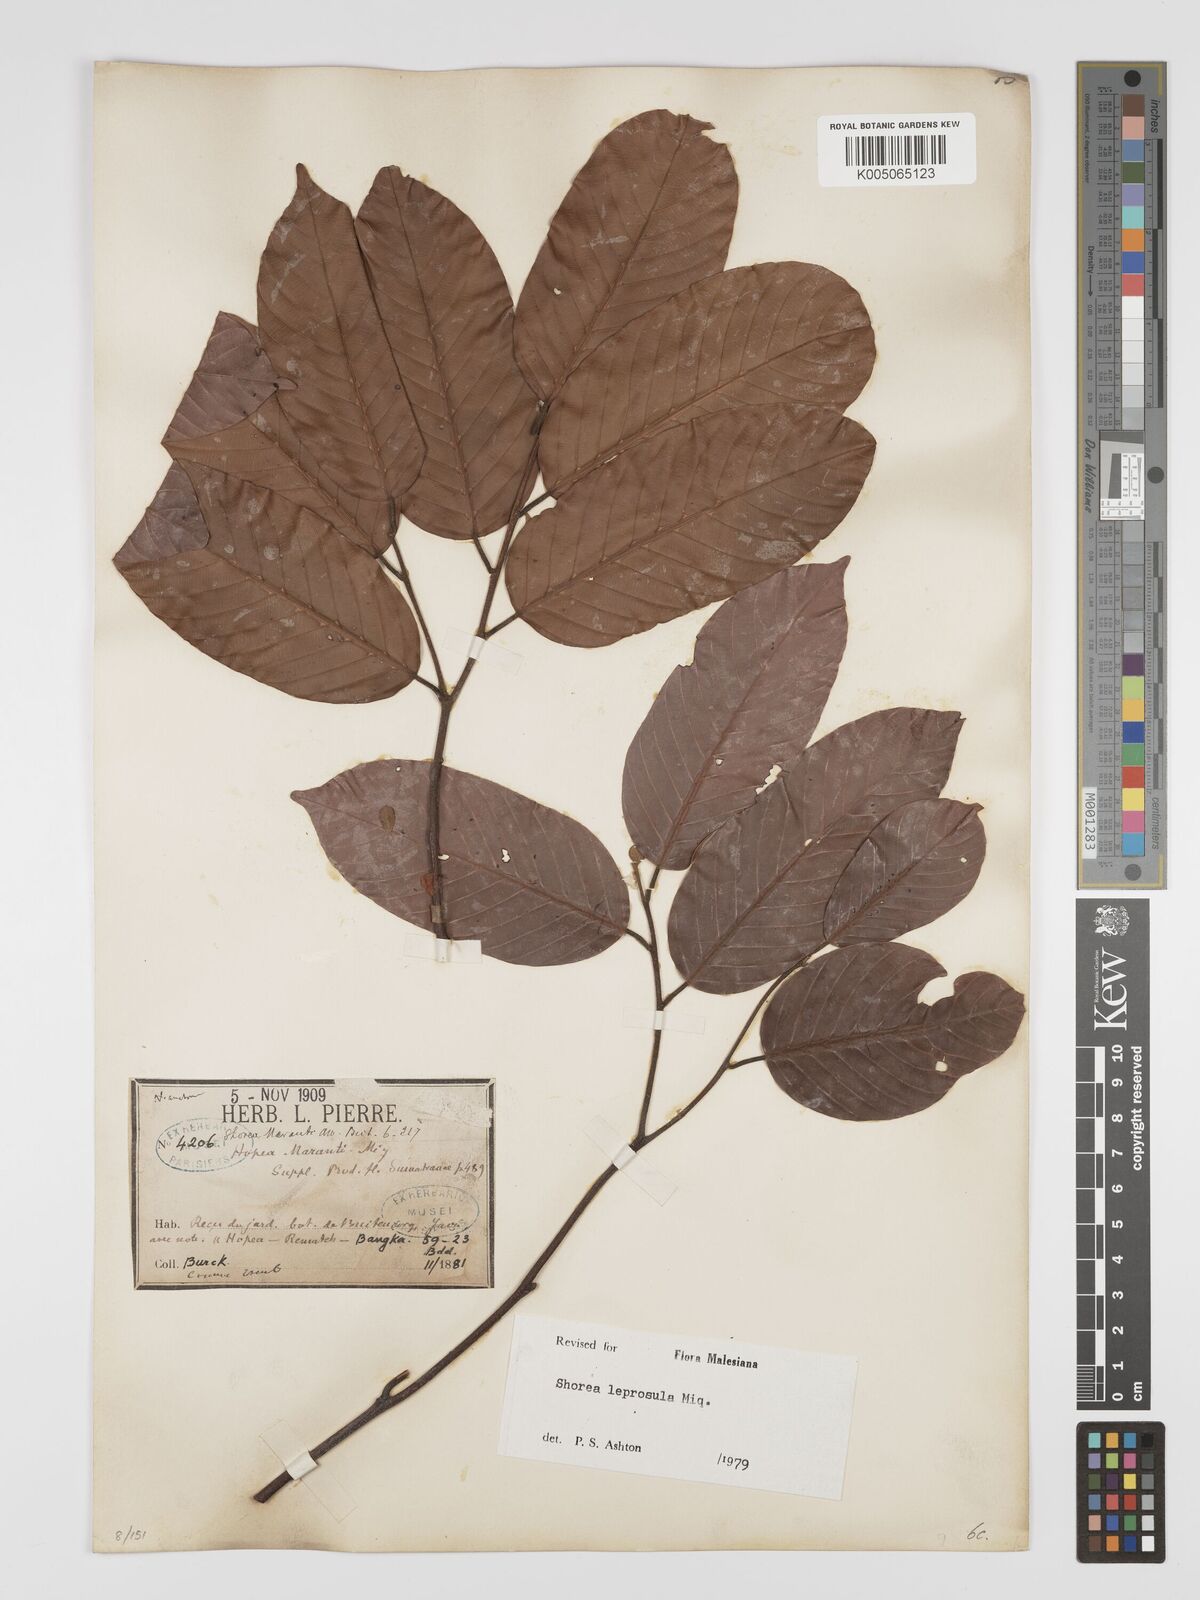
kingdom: Plantae
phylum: Tracheophyta
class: Magnoliopsida
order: Malvales
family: Dipterocarpaceae
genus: Shorea
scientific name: Shorea leprosula
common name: Light red meranti
